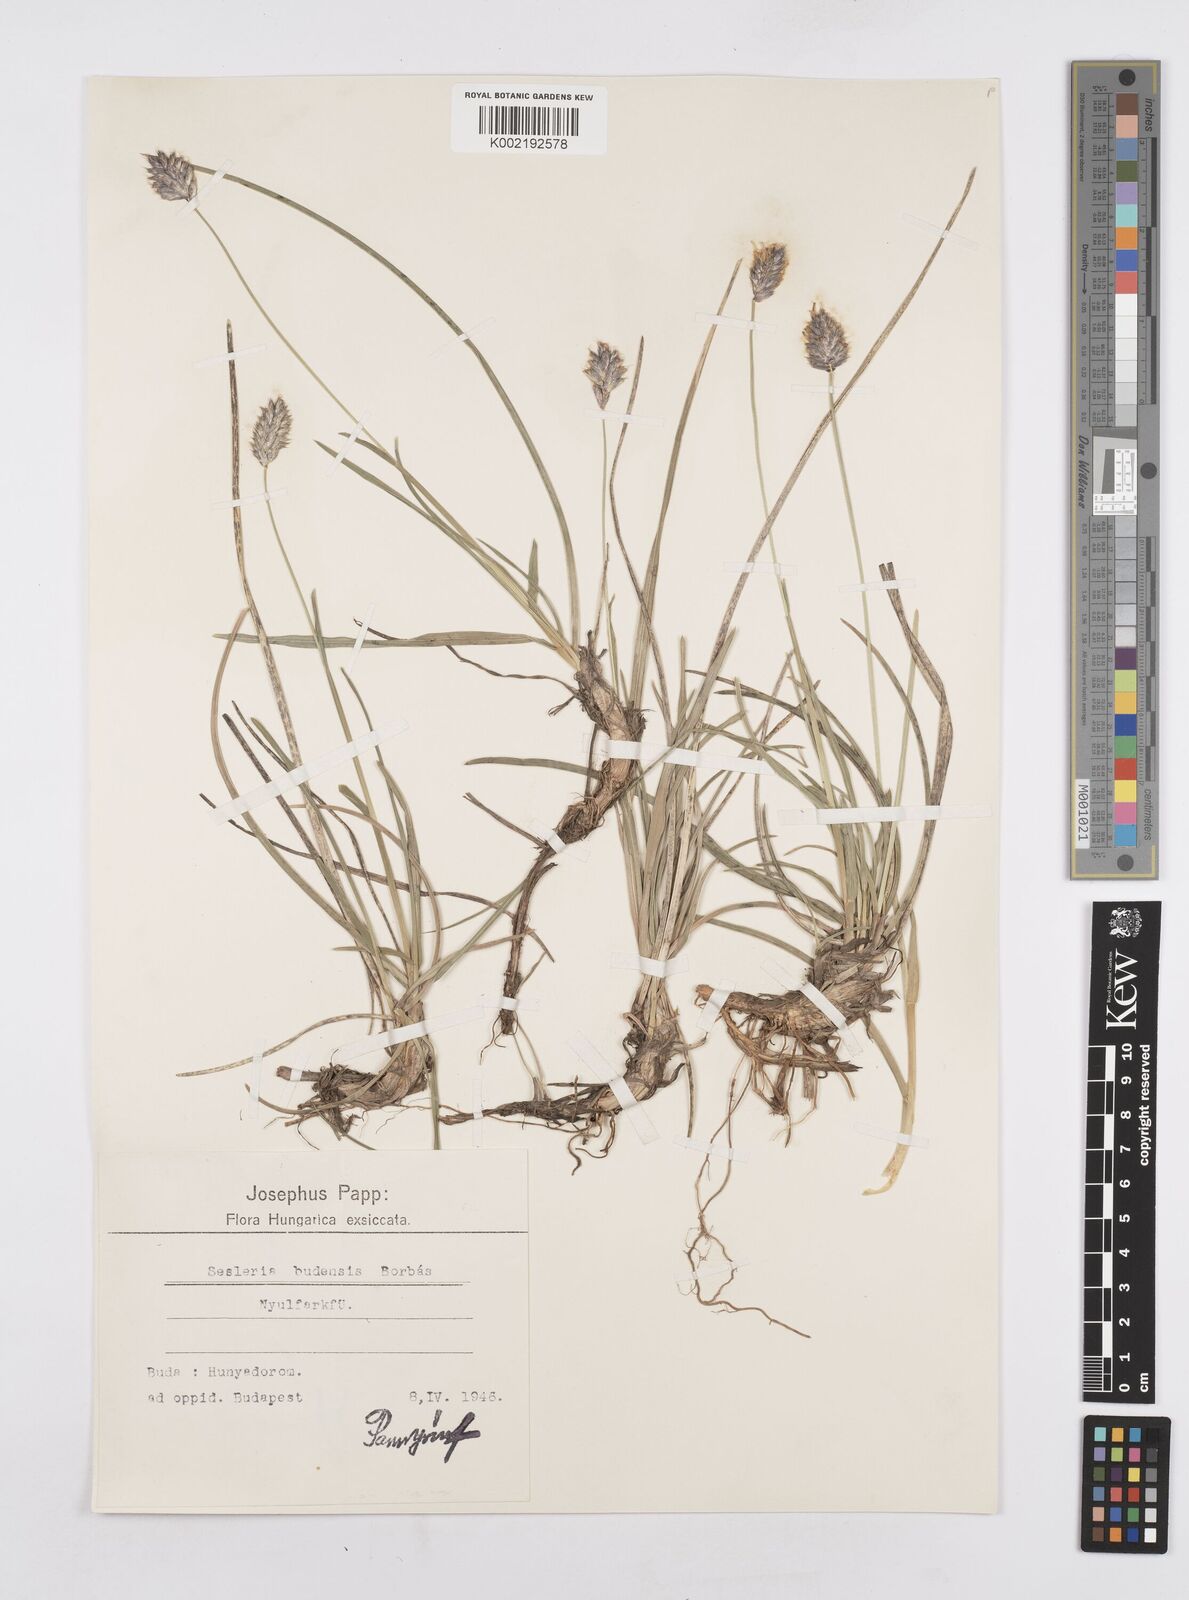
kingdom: Plantae
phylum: Tracheophyta
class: Liliopsida
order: Poales
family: Poaceae
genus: Sesleria
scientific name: Sesleria sadleriana
